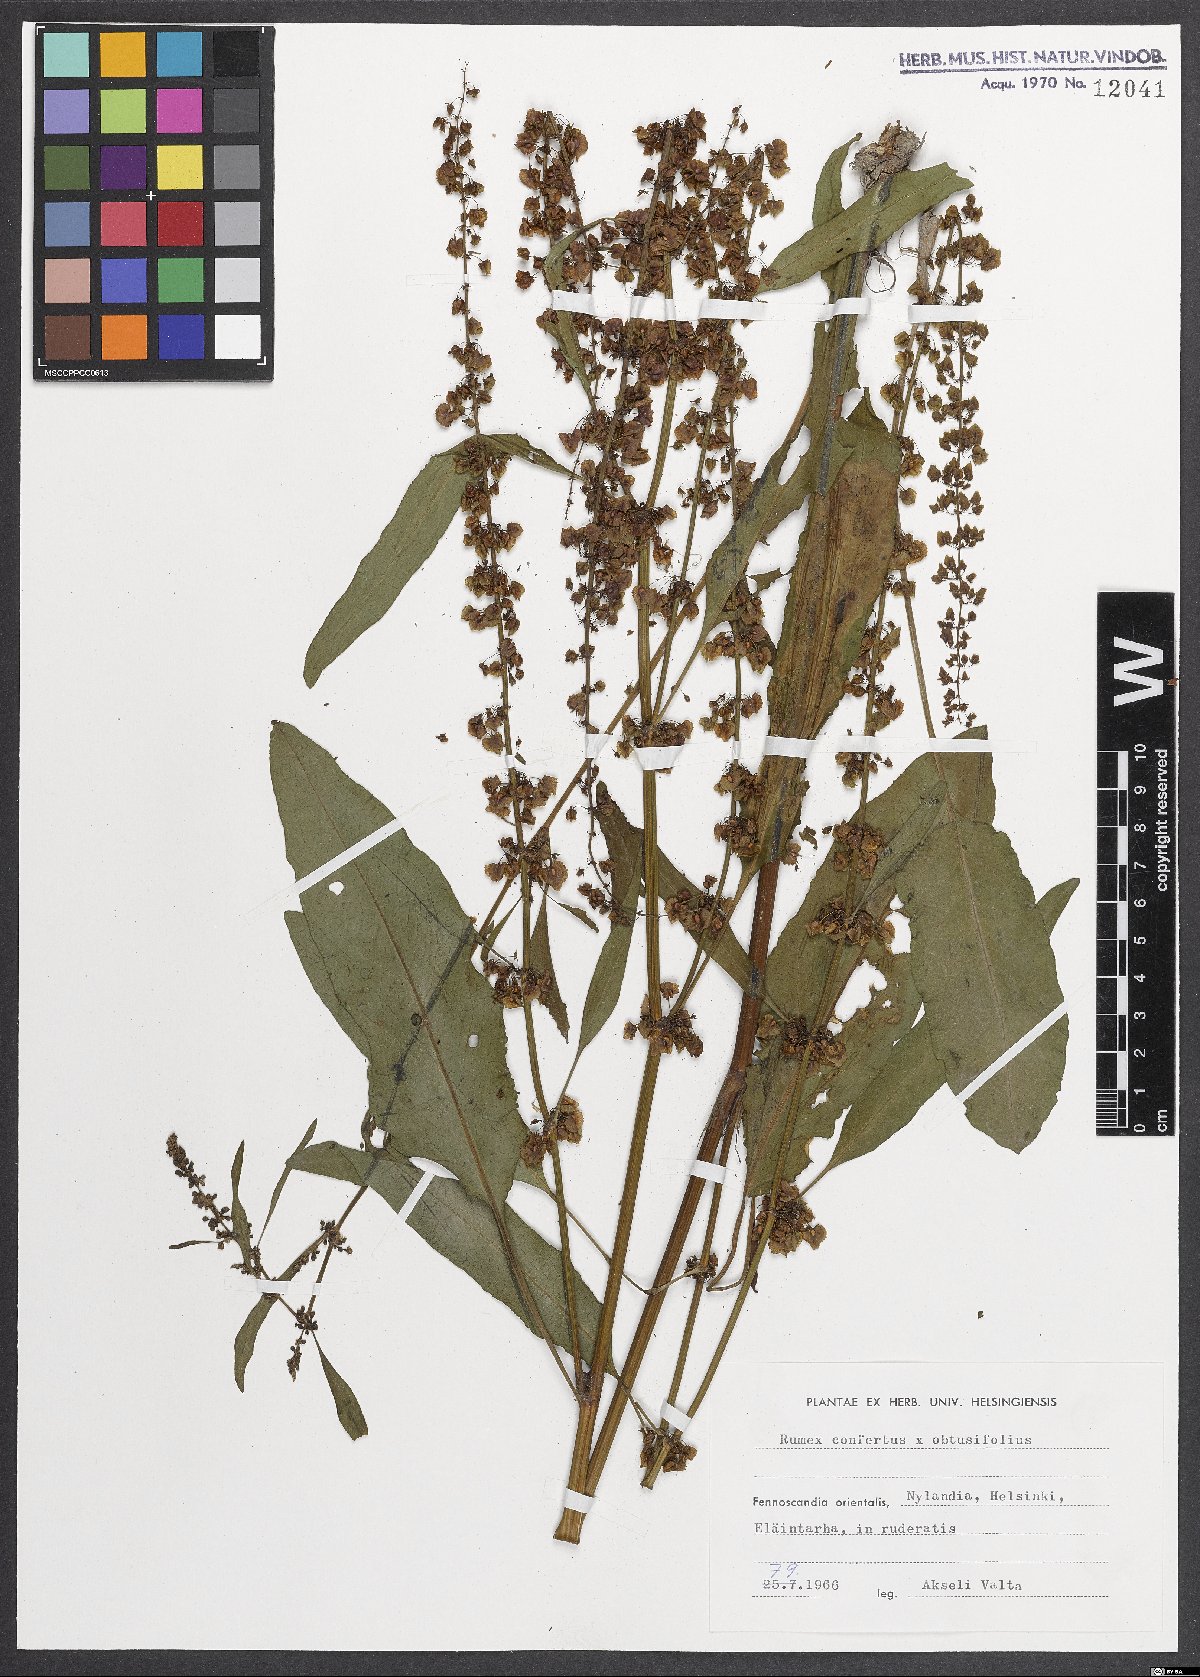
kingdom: Plantae
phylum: Tracheophyta
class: Magnoliopsida
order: Caryophyllales
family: Polygonaceae
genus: Rumex
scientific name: Rumex borbasii
